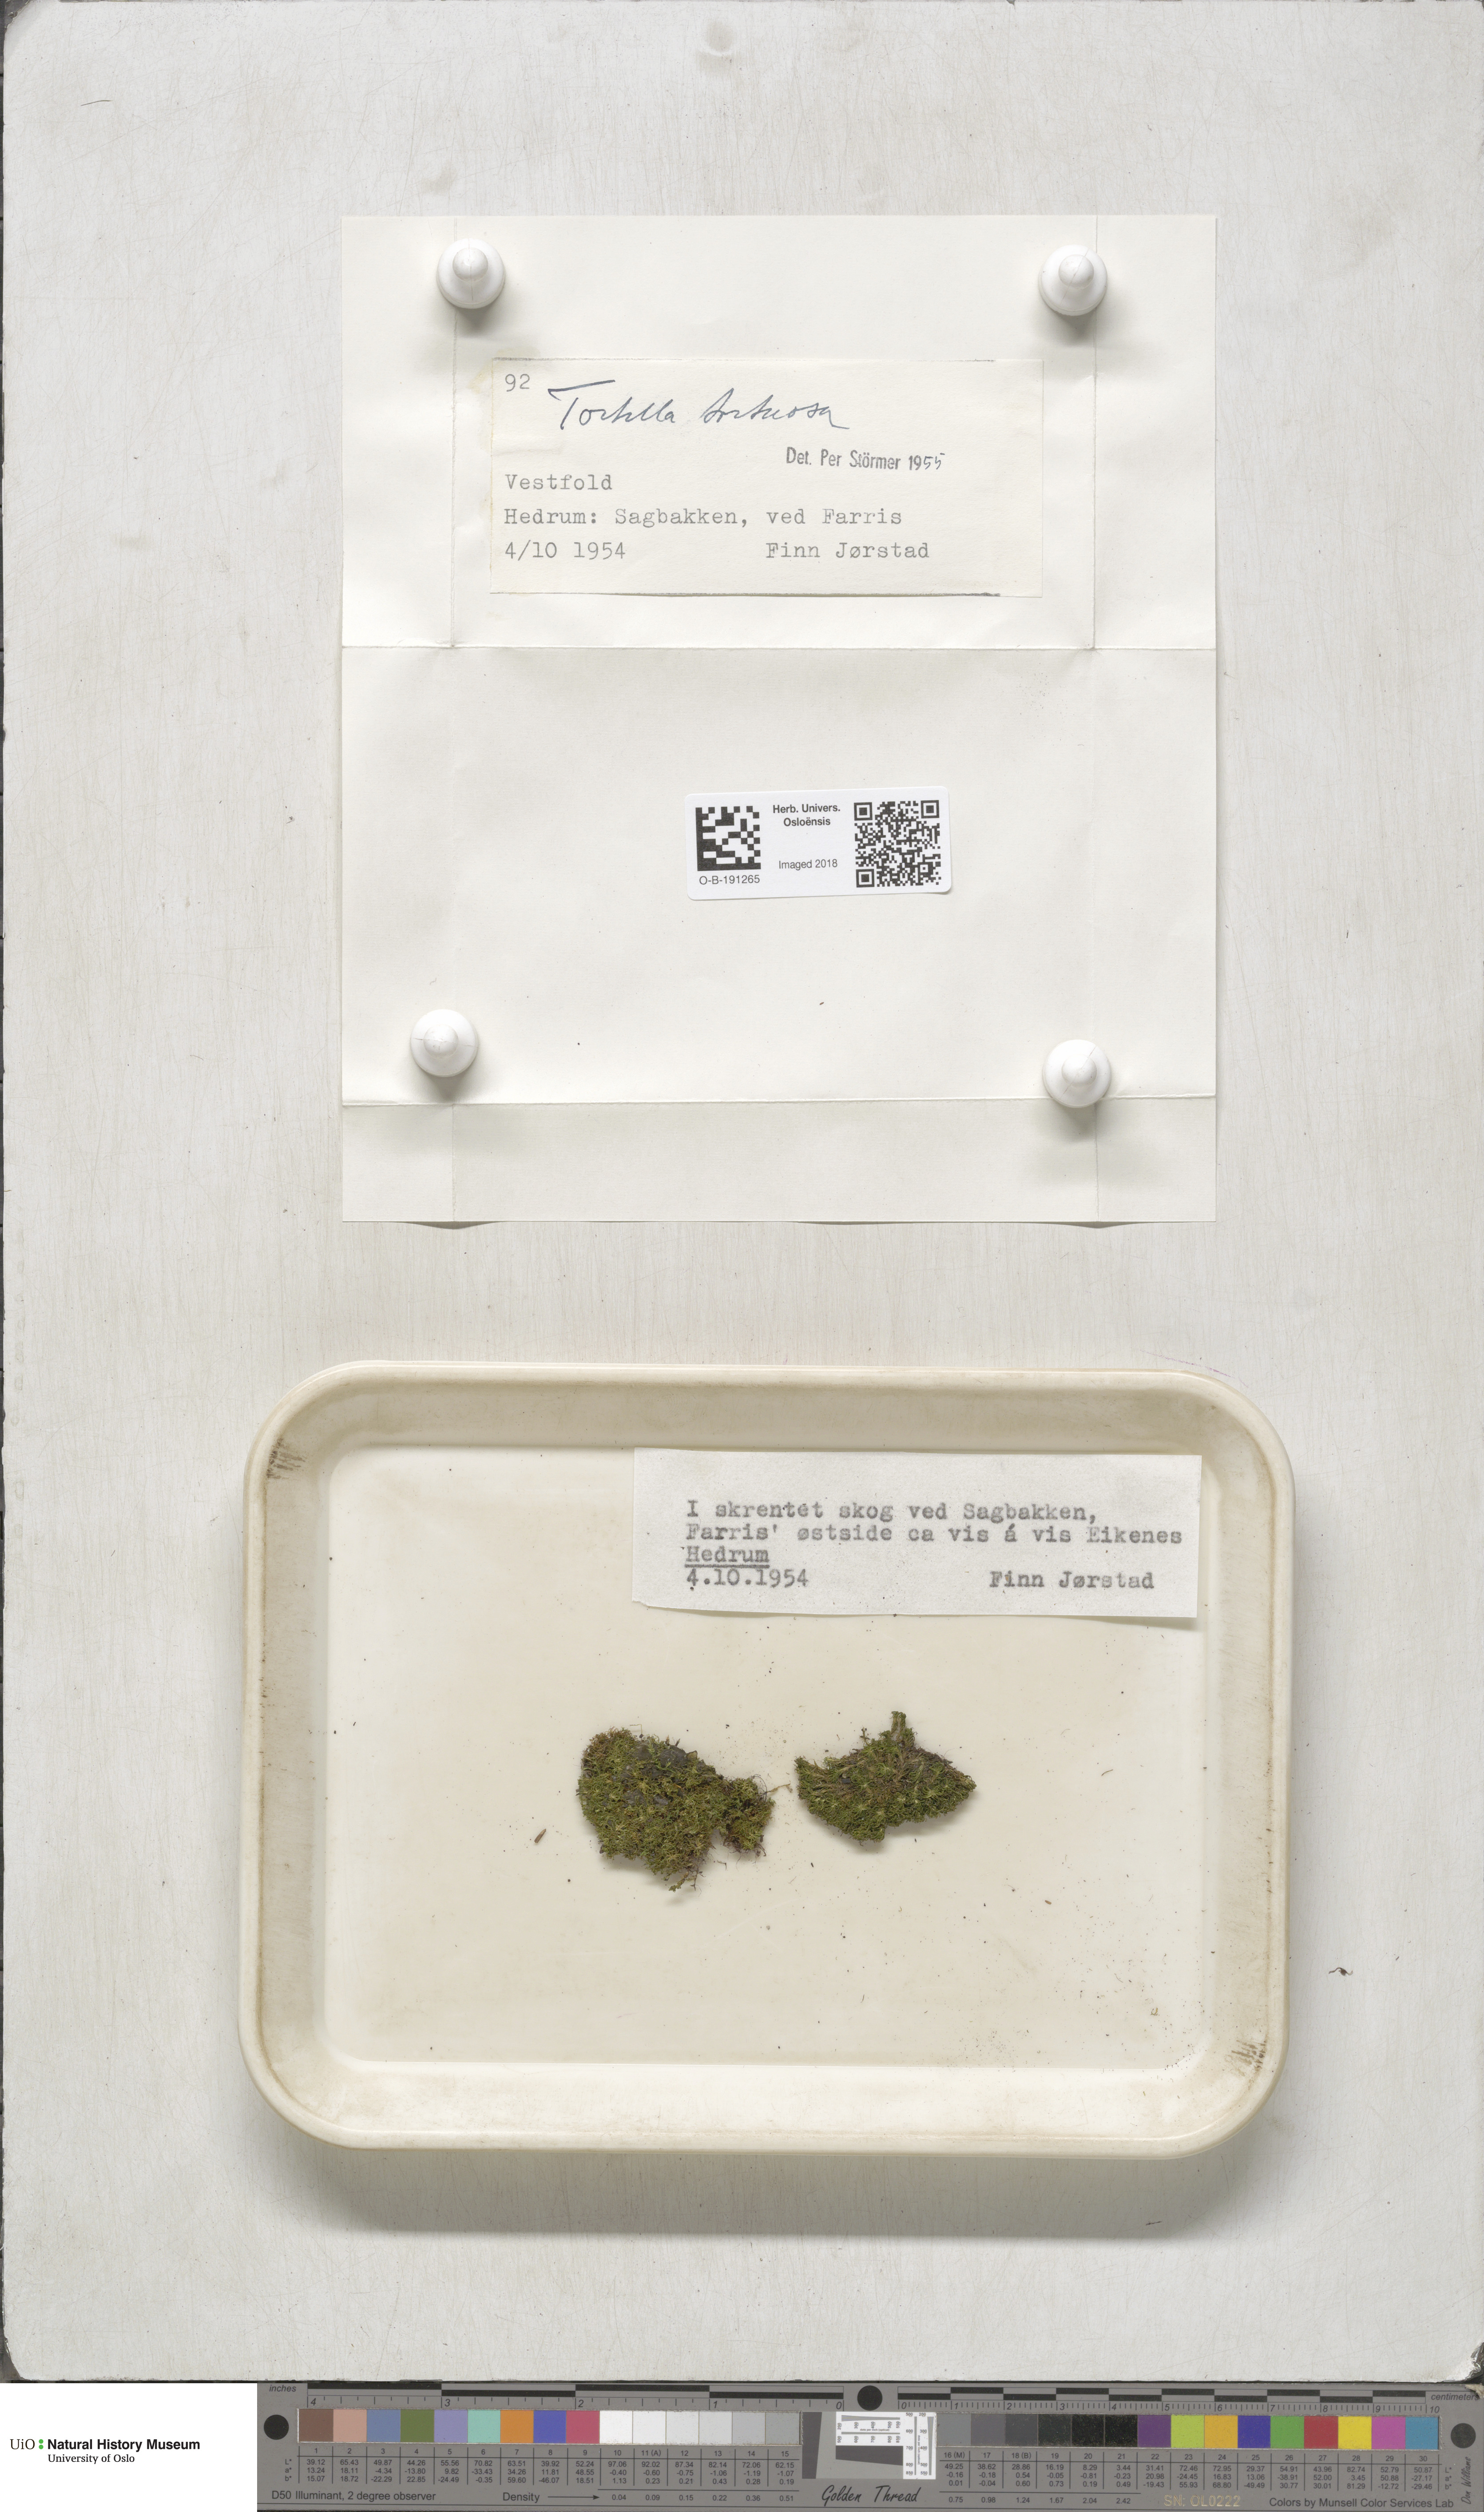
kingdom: Plantae
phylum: Bryophyta
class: Bryopsida
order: Pottiales
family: Pottiaceae
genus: Tortella
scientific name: Tortella tortuosa
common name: Frizzled crisp moss
